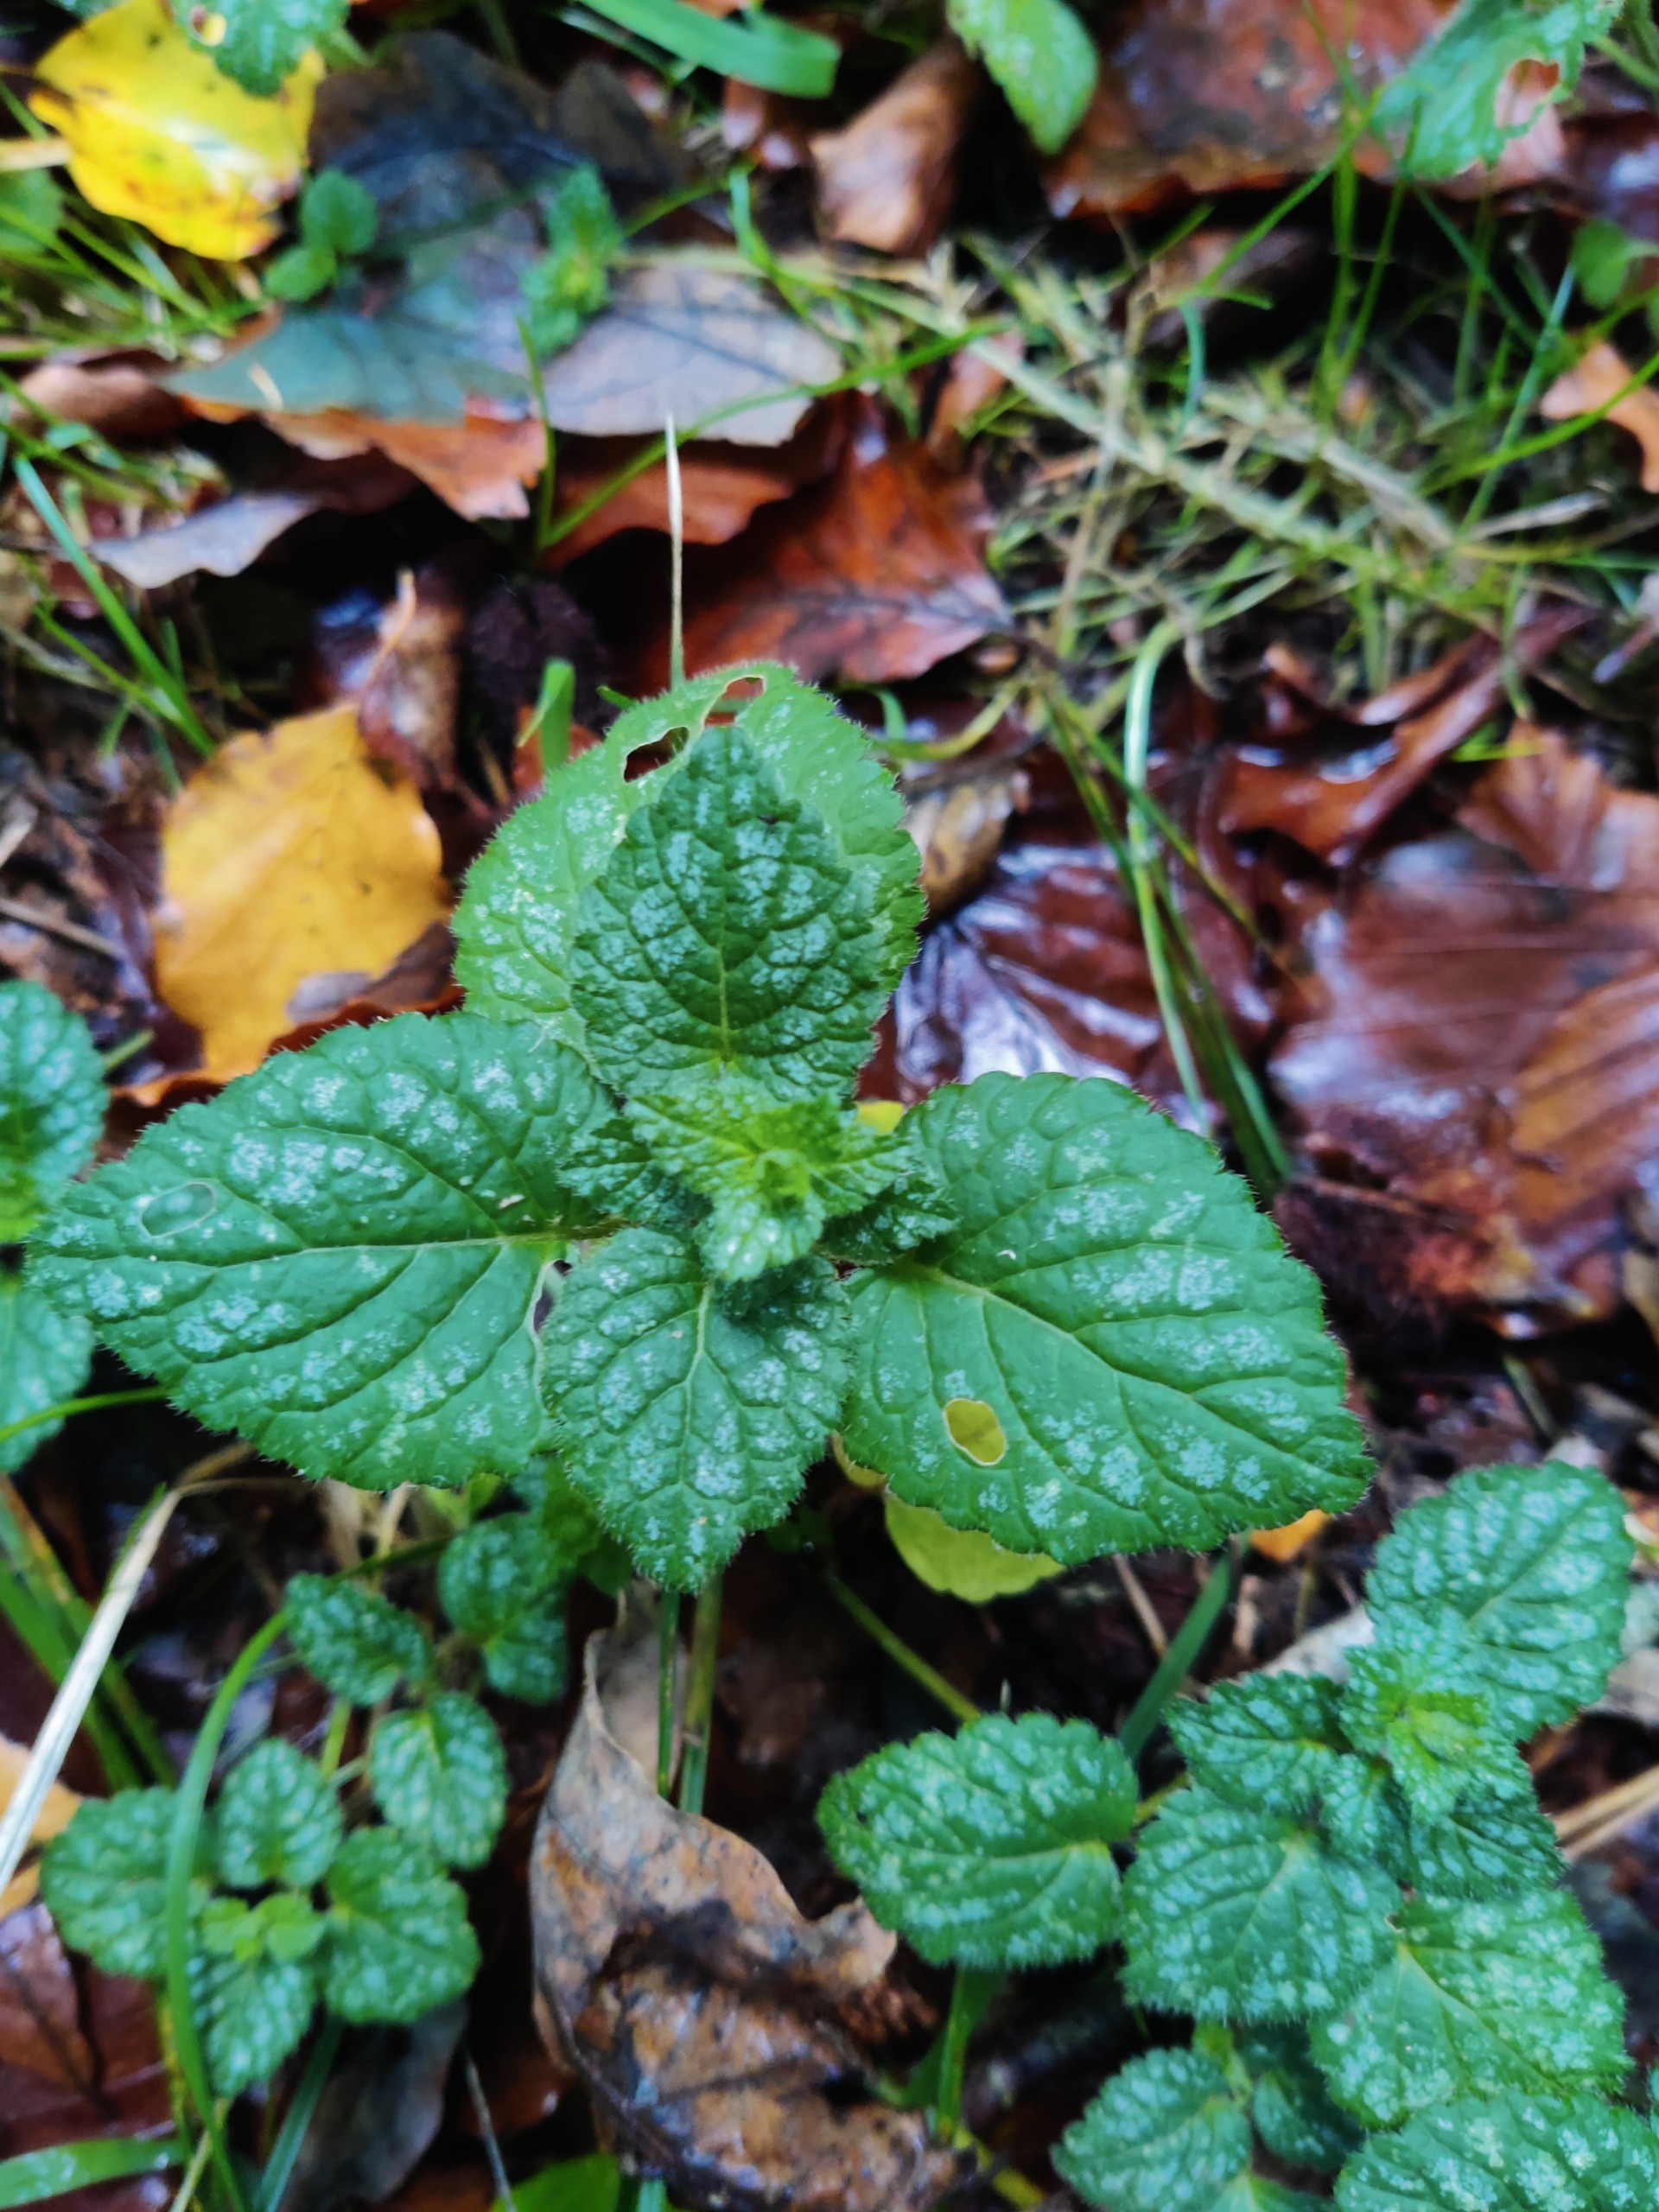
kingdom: Plantae
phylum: Tracheophyta
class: Magnoliopsida
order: Lamiales
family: Lamiaceae
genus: Lamium
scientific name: Lamium galeobdolon
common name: Almindelig guldnælde
